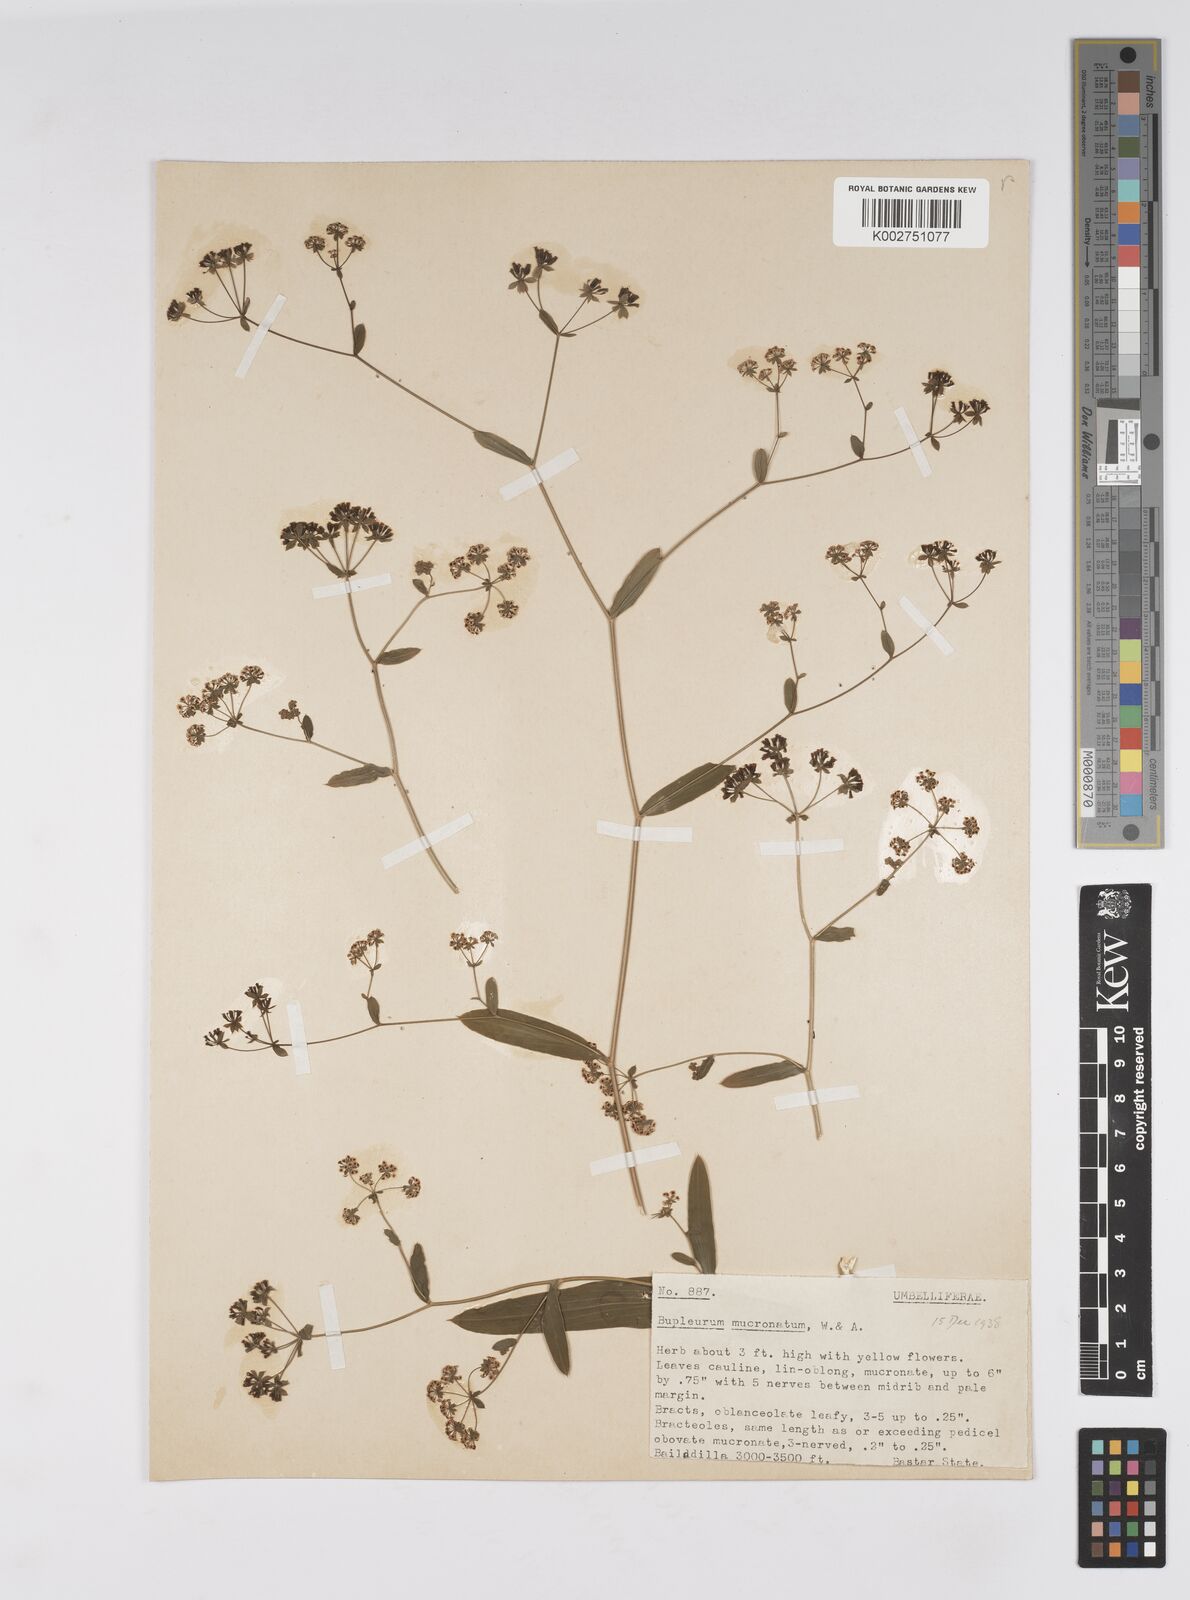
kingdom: Plantae
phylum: Tracheophyta
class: Magnoliopsida
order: Apiales
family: Apiaceae
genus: Bupleurum
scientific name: Bupleurum ramosissimum
